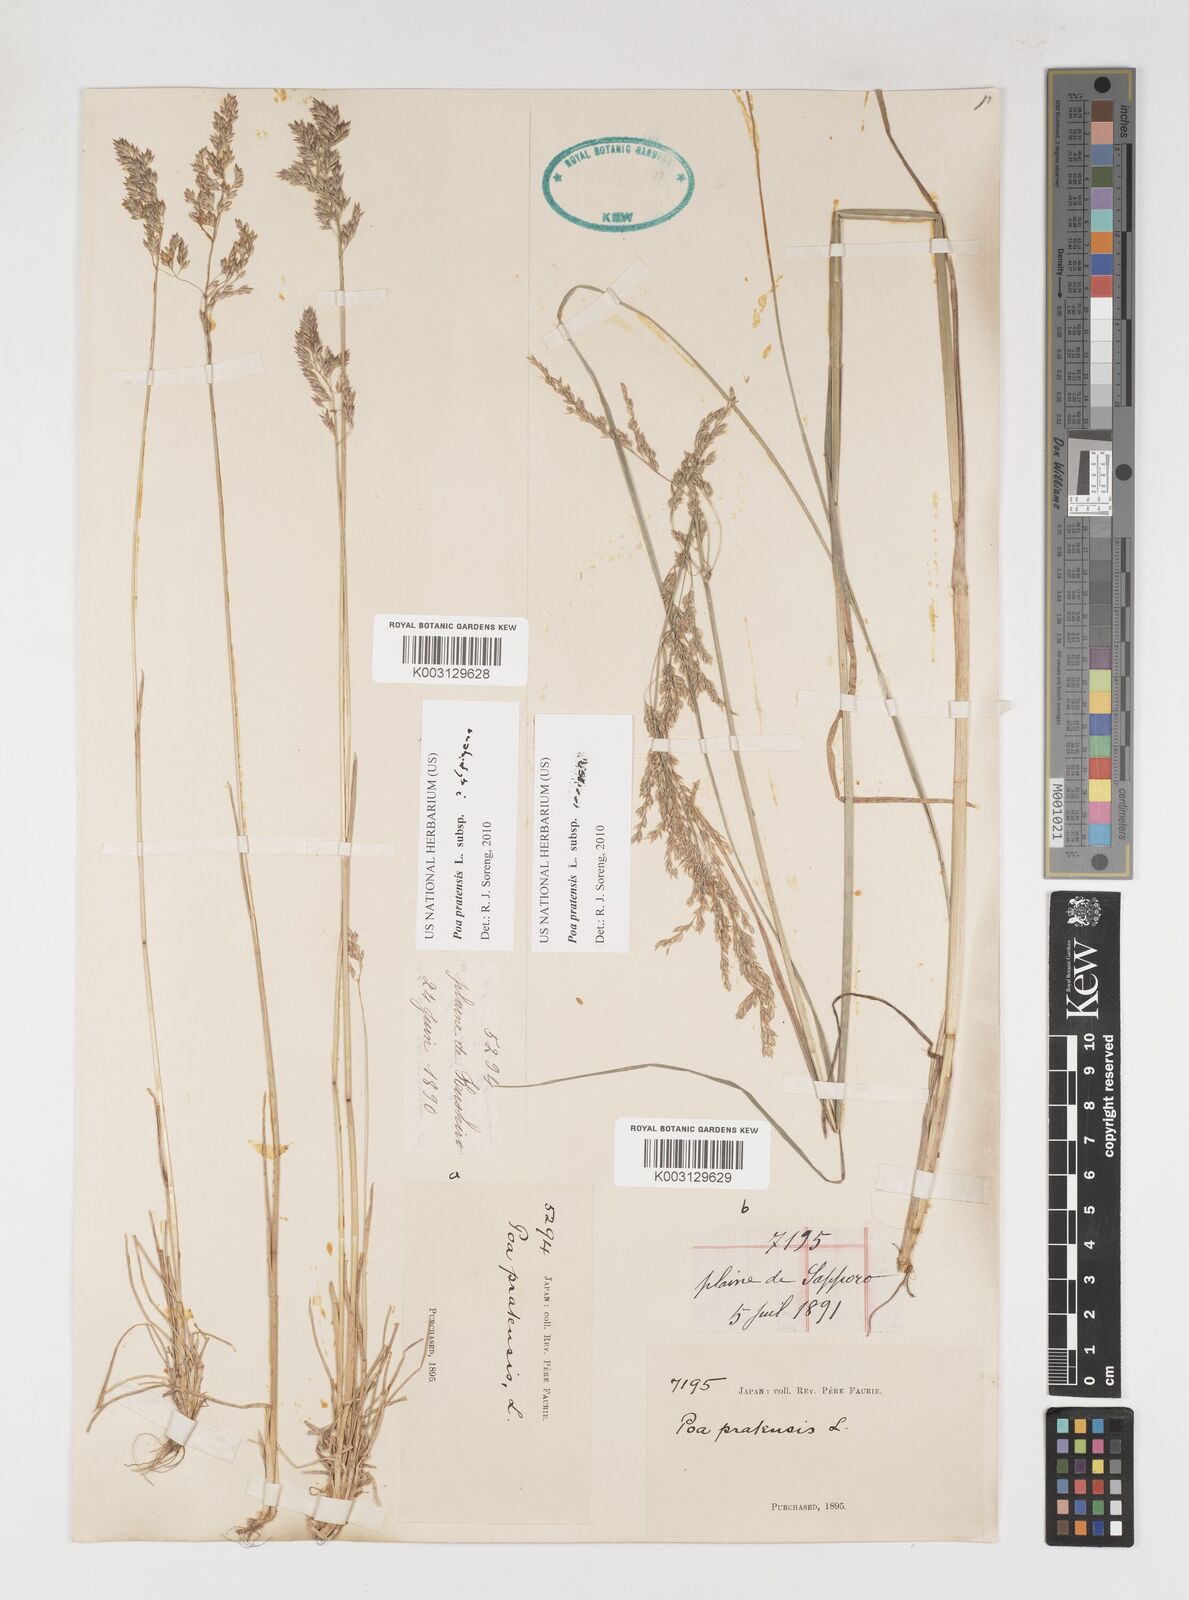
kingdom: Plantae
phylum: Tracheophyta
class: Liliopsida
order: Poales
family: Poaceae
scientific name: Poaceae
